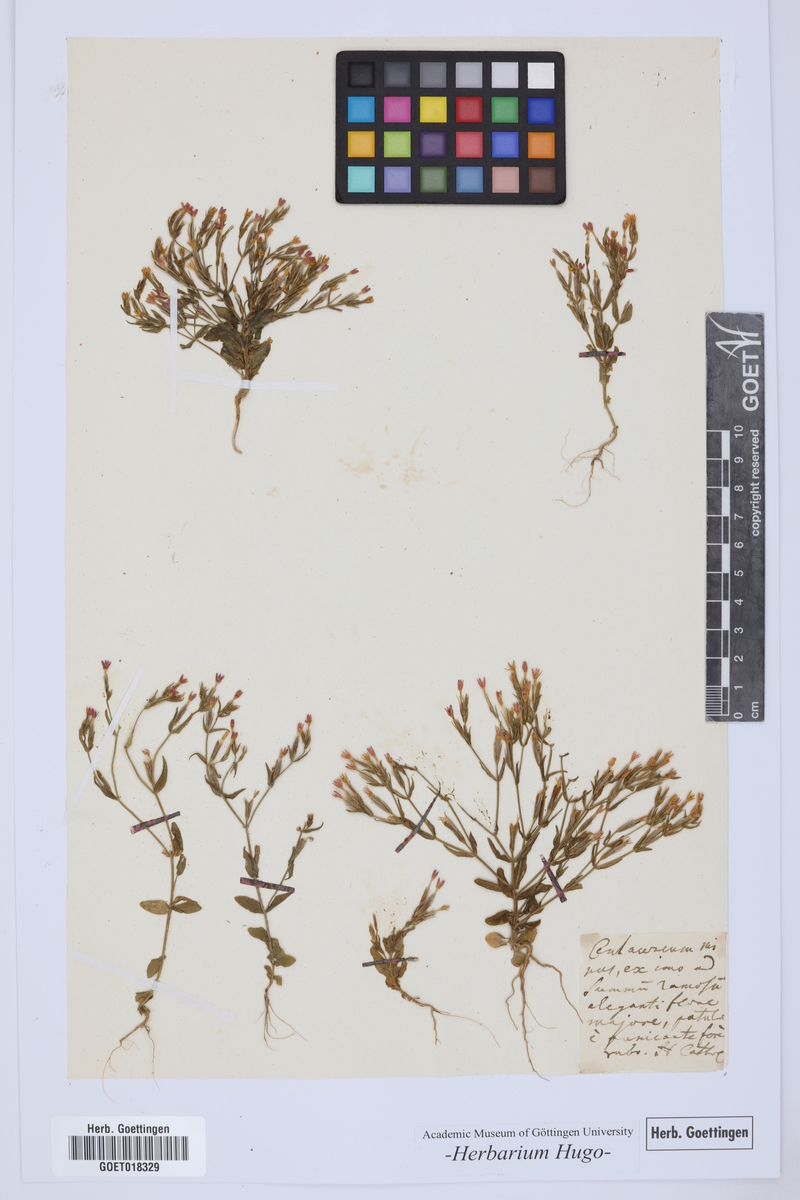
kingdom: Plantae
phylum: Tracheophyta
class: Magnoliopsida
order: Gentianales
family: Gentianaceae
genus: Centaurium
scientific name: Centaurium erythraea
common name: Common centaury
